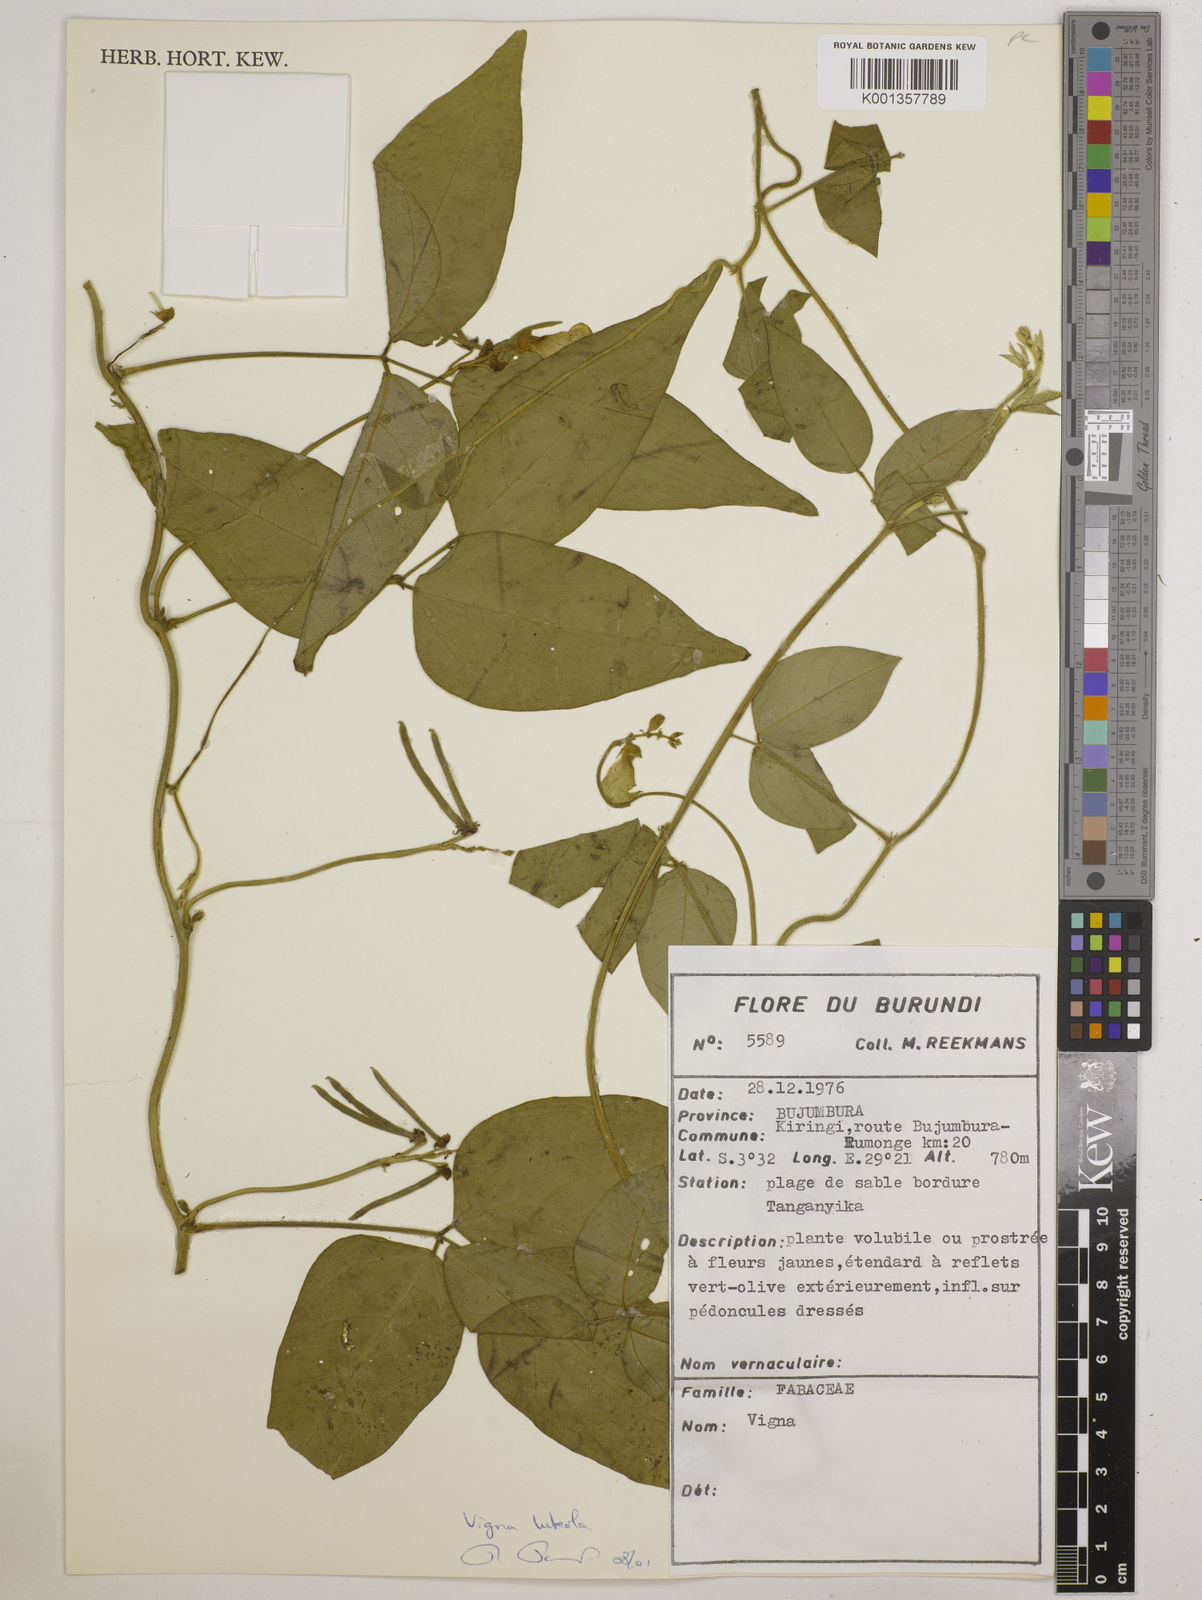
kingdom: Plantae
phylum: Tracheophyta
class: Magnoliopsida
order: Fabales
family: Fabaceae
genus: Vigna
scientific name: Vigna
